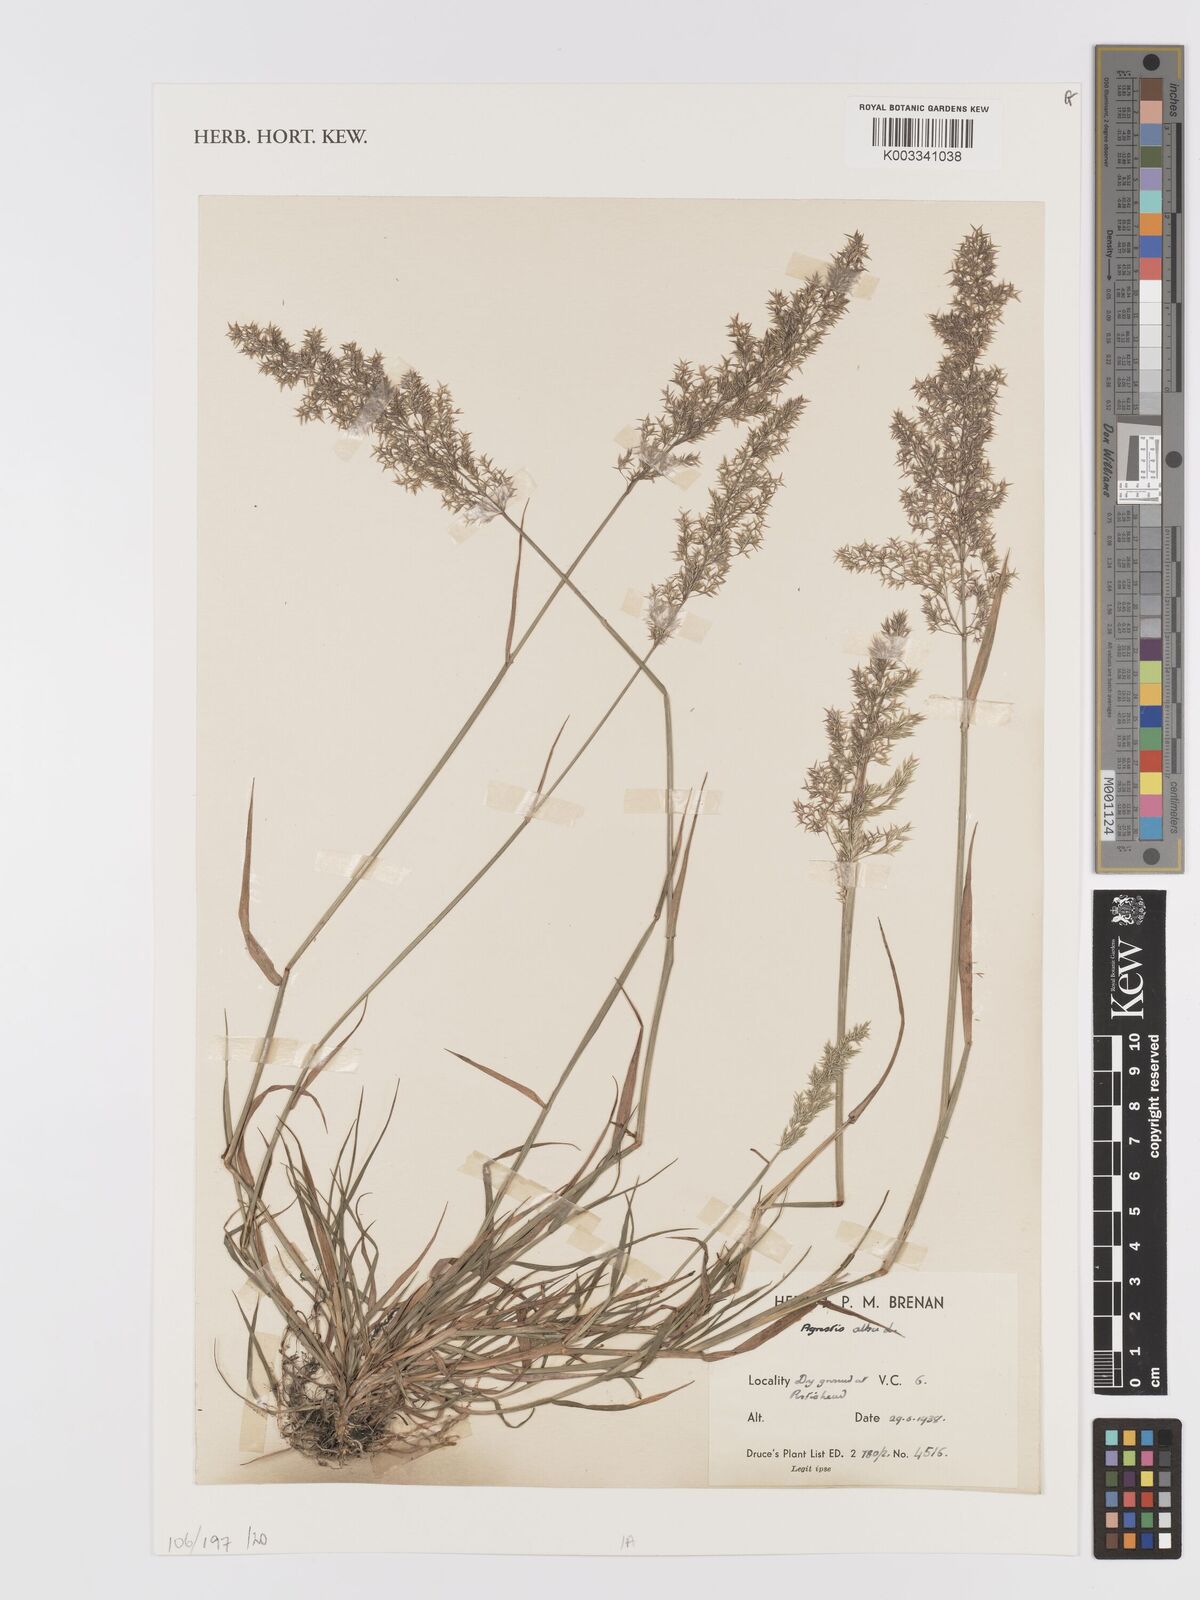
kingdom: Plantae
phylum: Tracheophyta
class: Liliopsida
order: Poales
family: Poaceae
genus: Agrostis
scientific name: Agrostis gigantea
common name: Black bent
